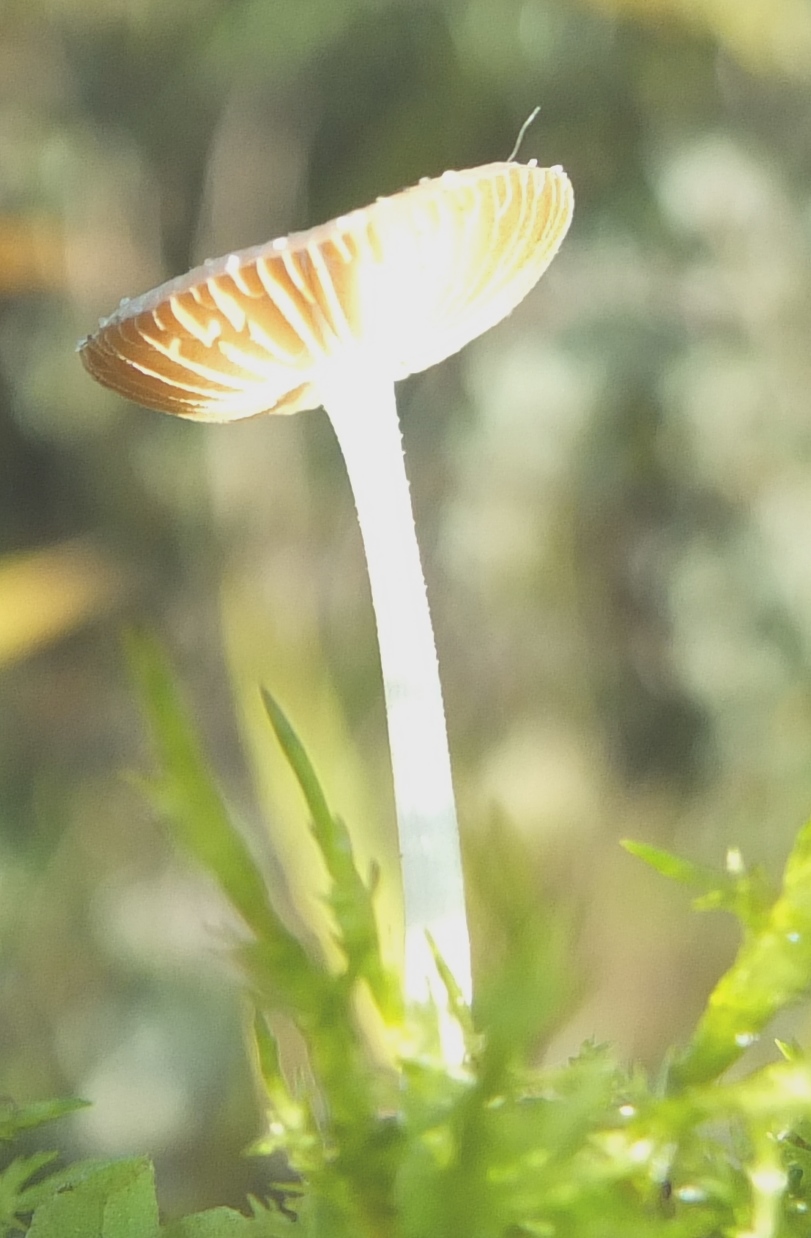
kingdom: Fungi
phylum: Basidiomycota
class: Agaricomycetes
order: Agaricales
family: Bolbitiaceae
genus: Bolbitius
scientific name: Bolbitius pluteoides
